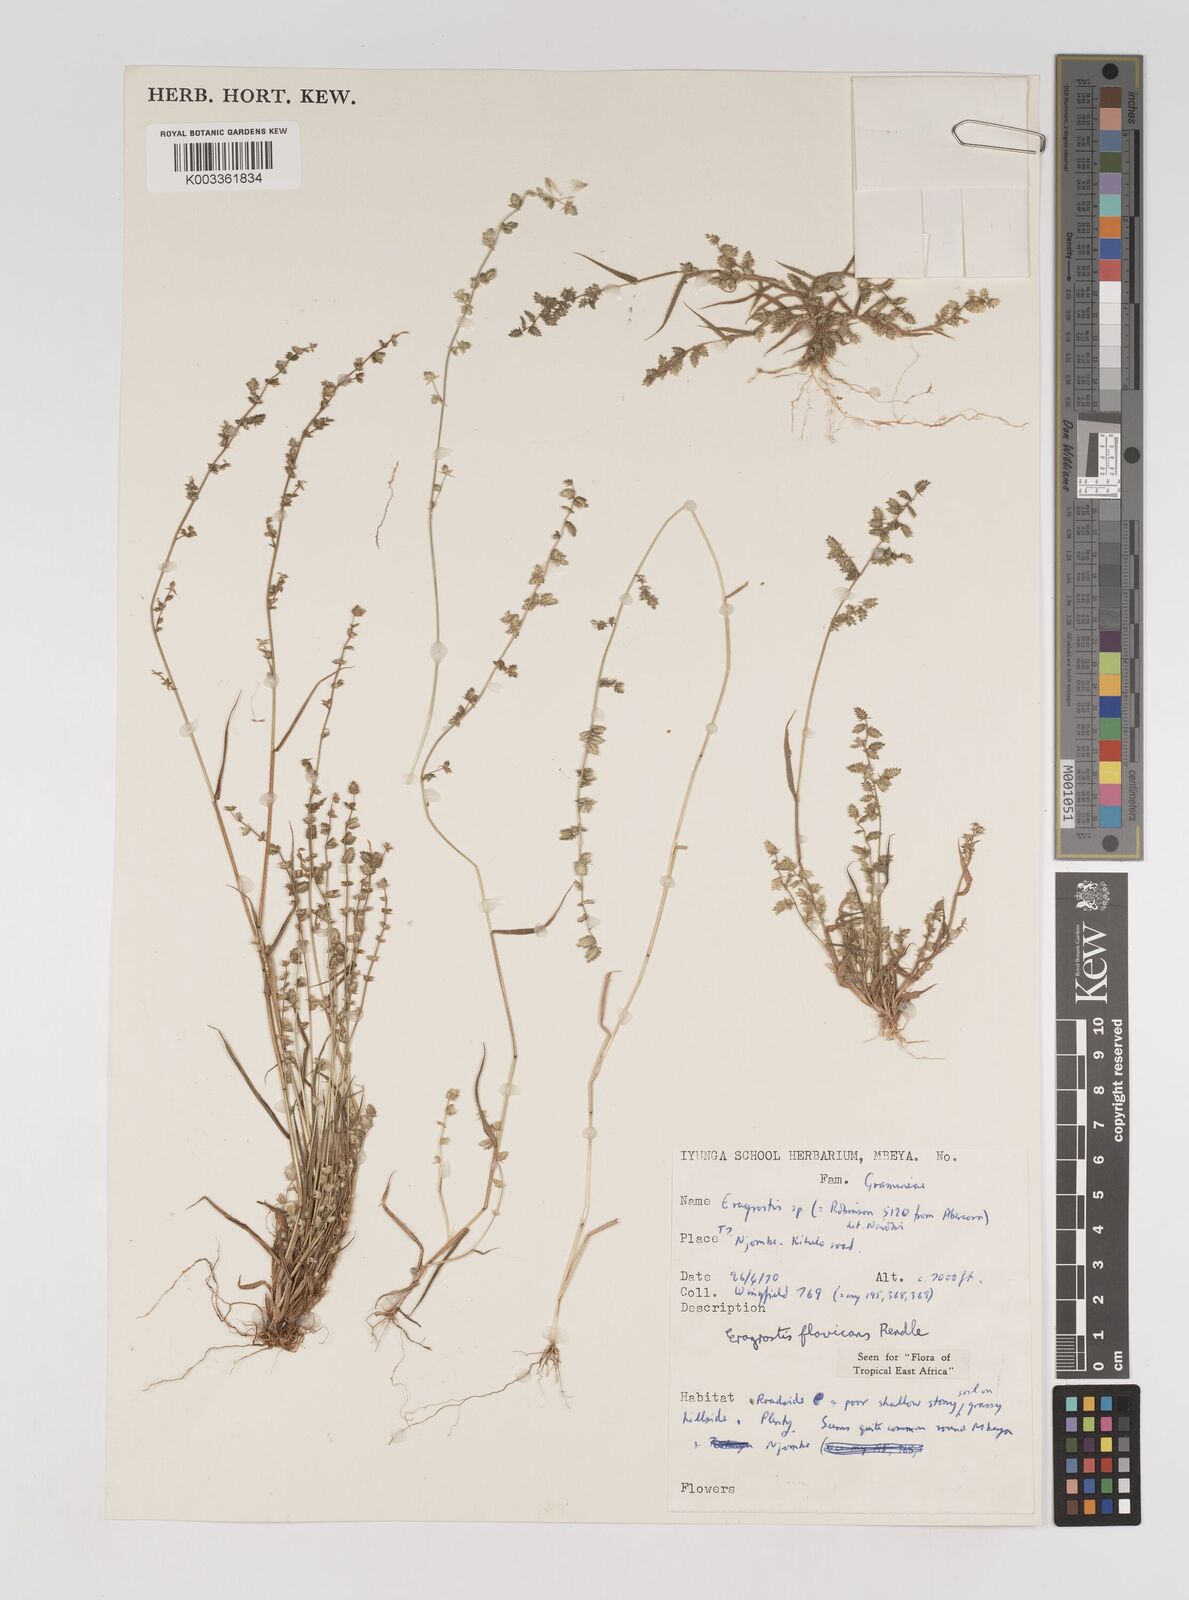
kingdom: Plantae
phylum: Tracheophyta
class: Liliopsida
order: Poales
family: Poaceae
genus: Eragrostis
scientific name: Eragrostis flavicans
